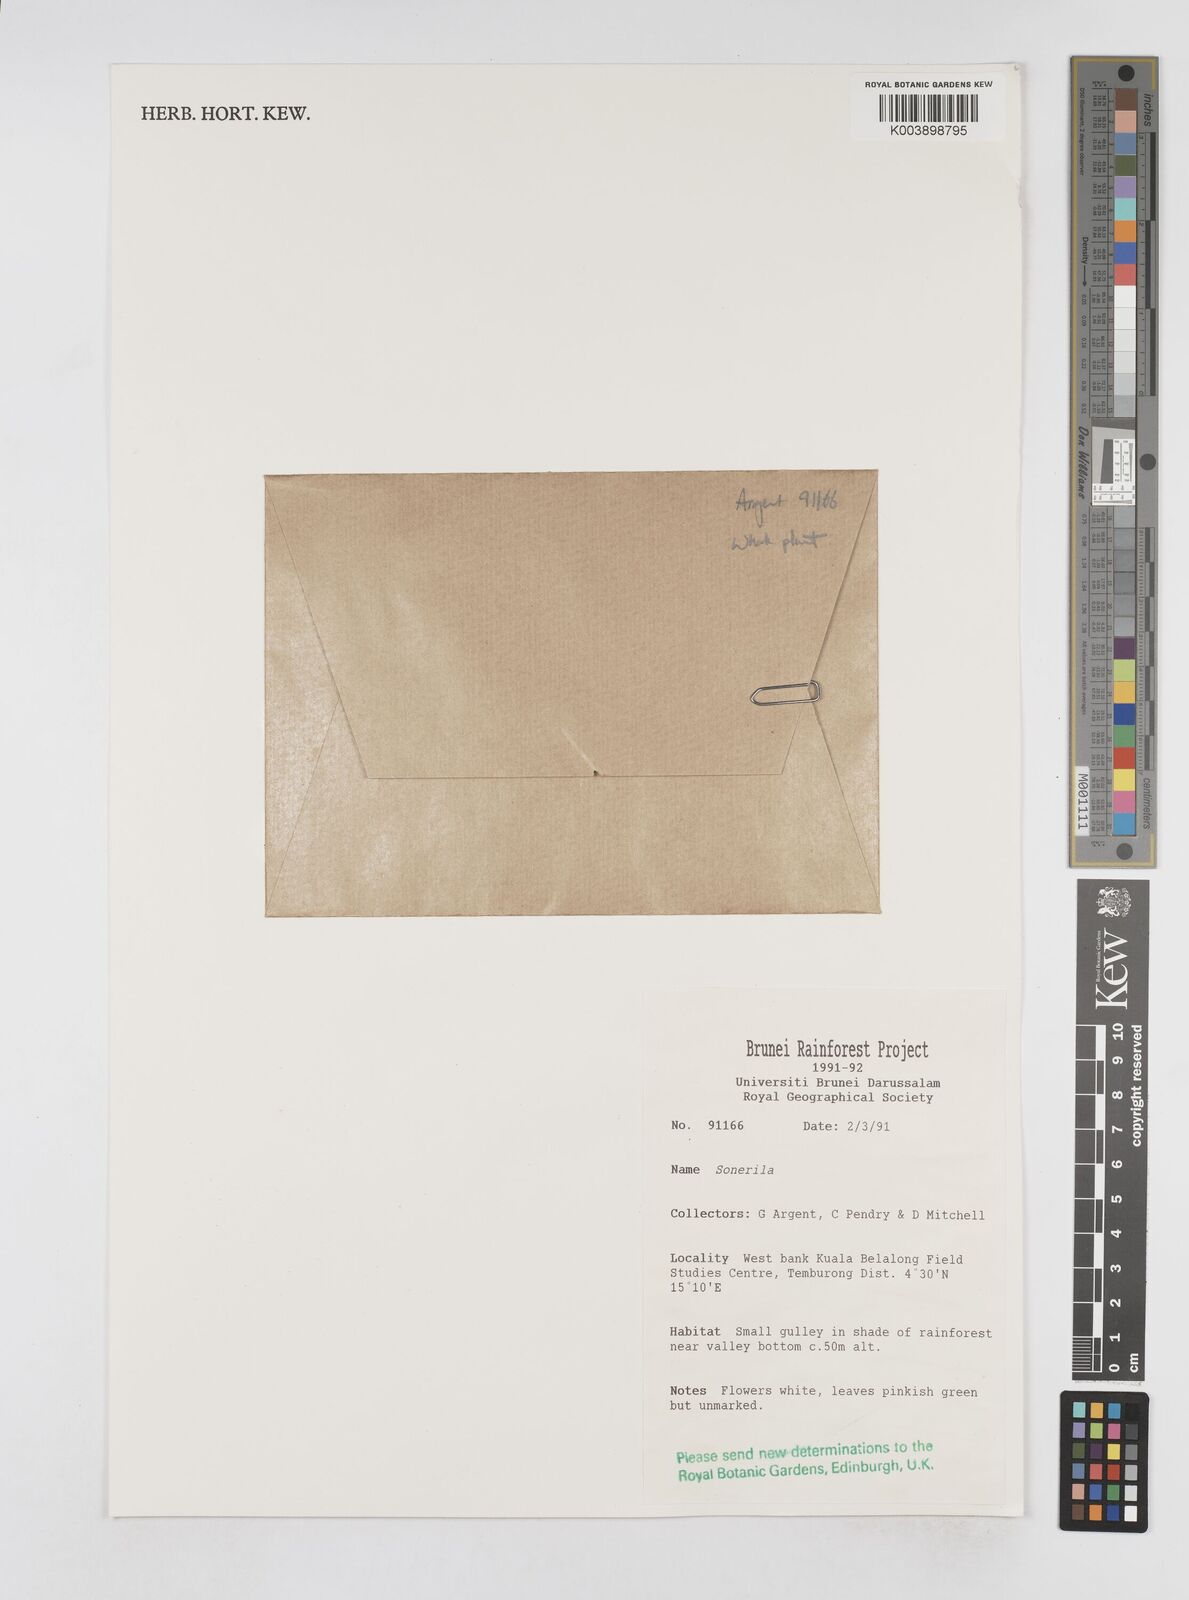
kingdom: Plantae
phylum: Tracheophyta
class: Magnoliopsida
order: Myrtales
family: Melastomataceae
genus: Sonerila
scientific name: Sonerila
